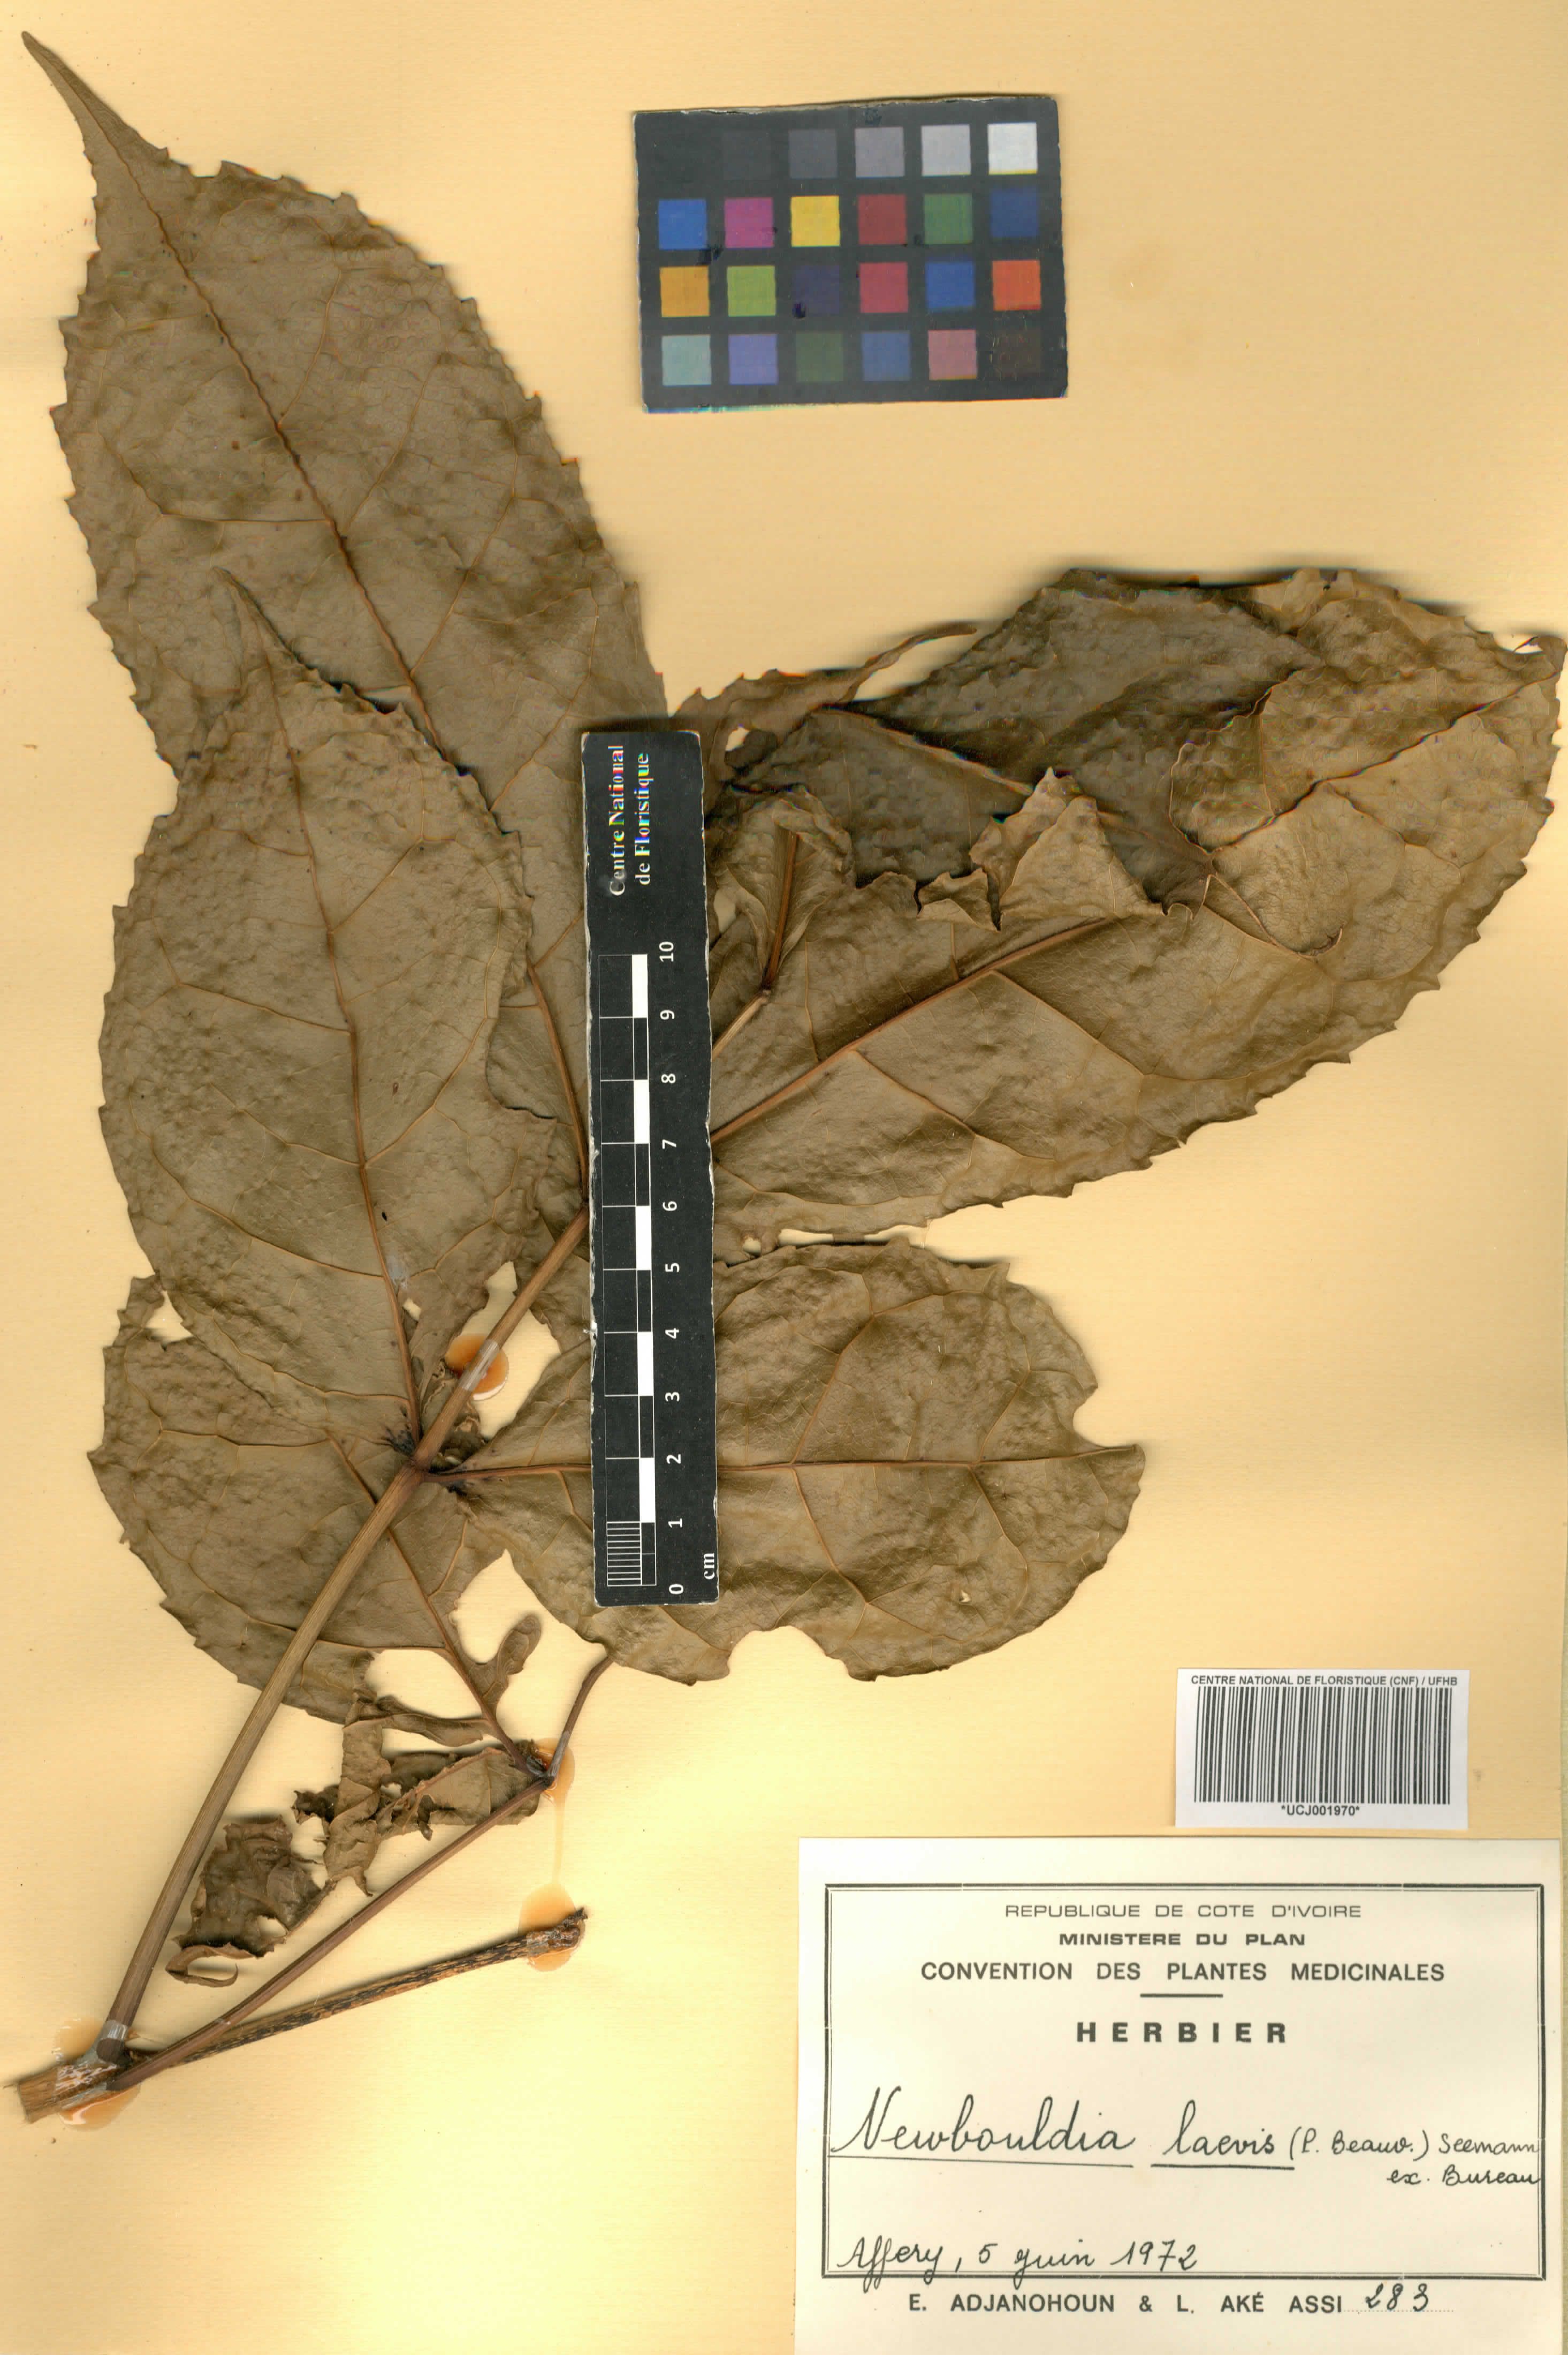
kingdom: Plantae
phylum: Tracheophyta
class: Magnoliopsida
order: Lamiales
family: Bignoniaceae
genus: Newbouldia
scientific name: Newbouldia laevis
